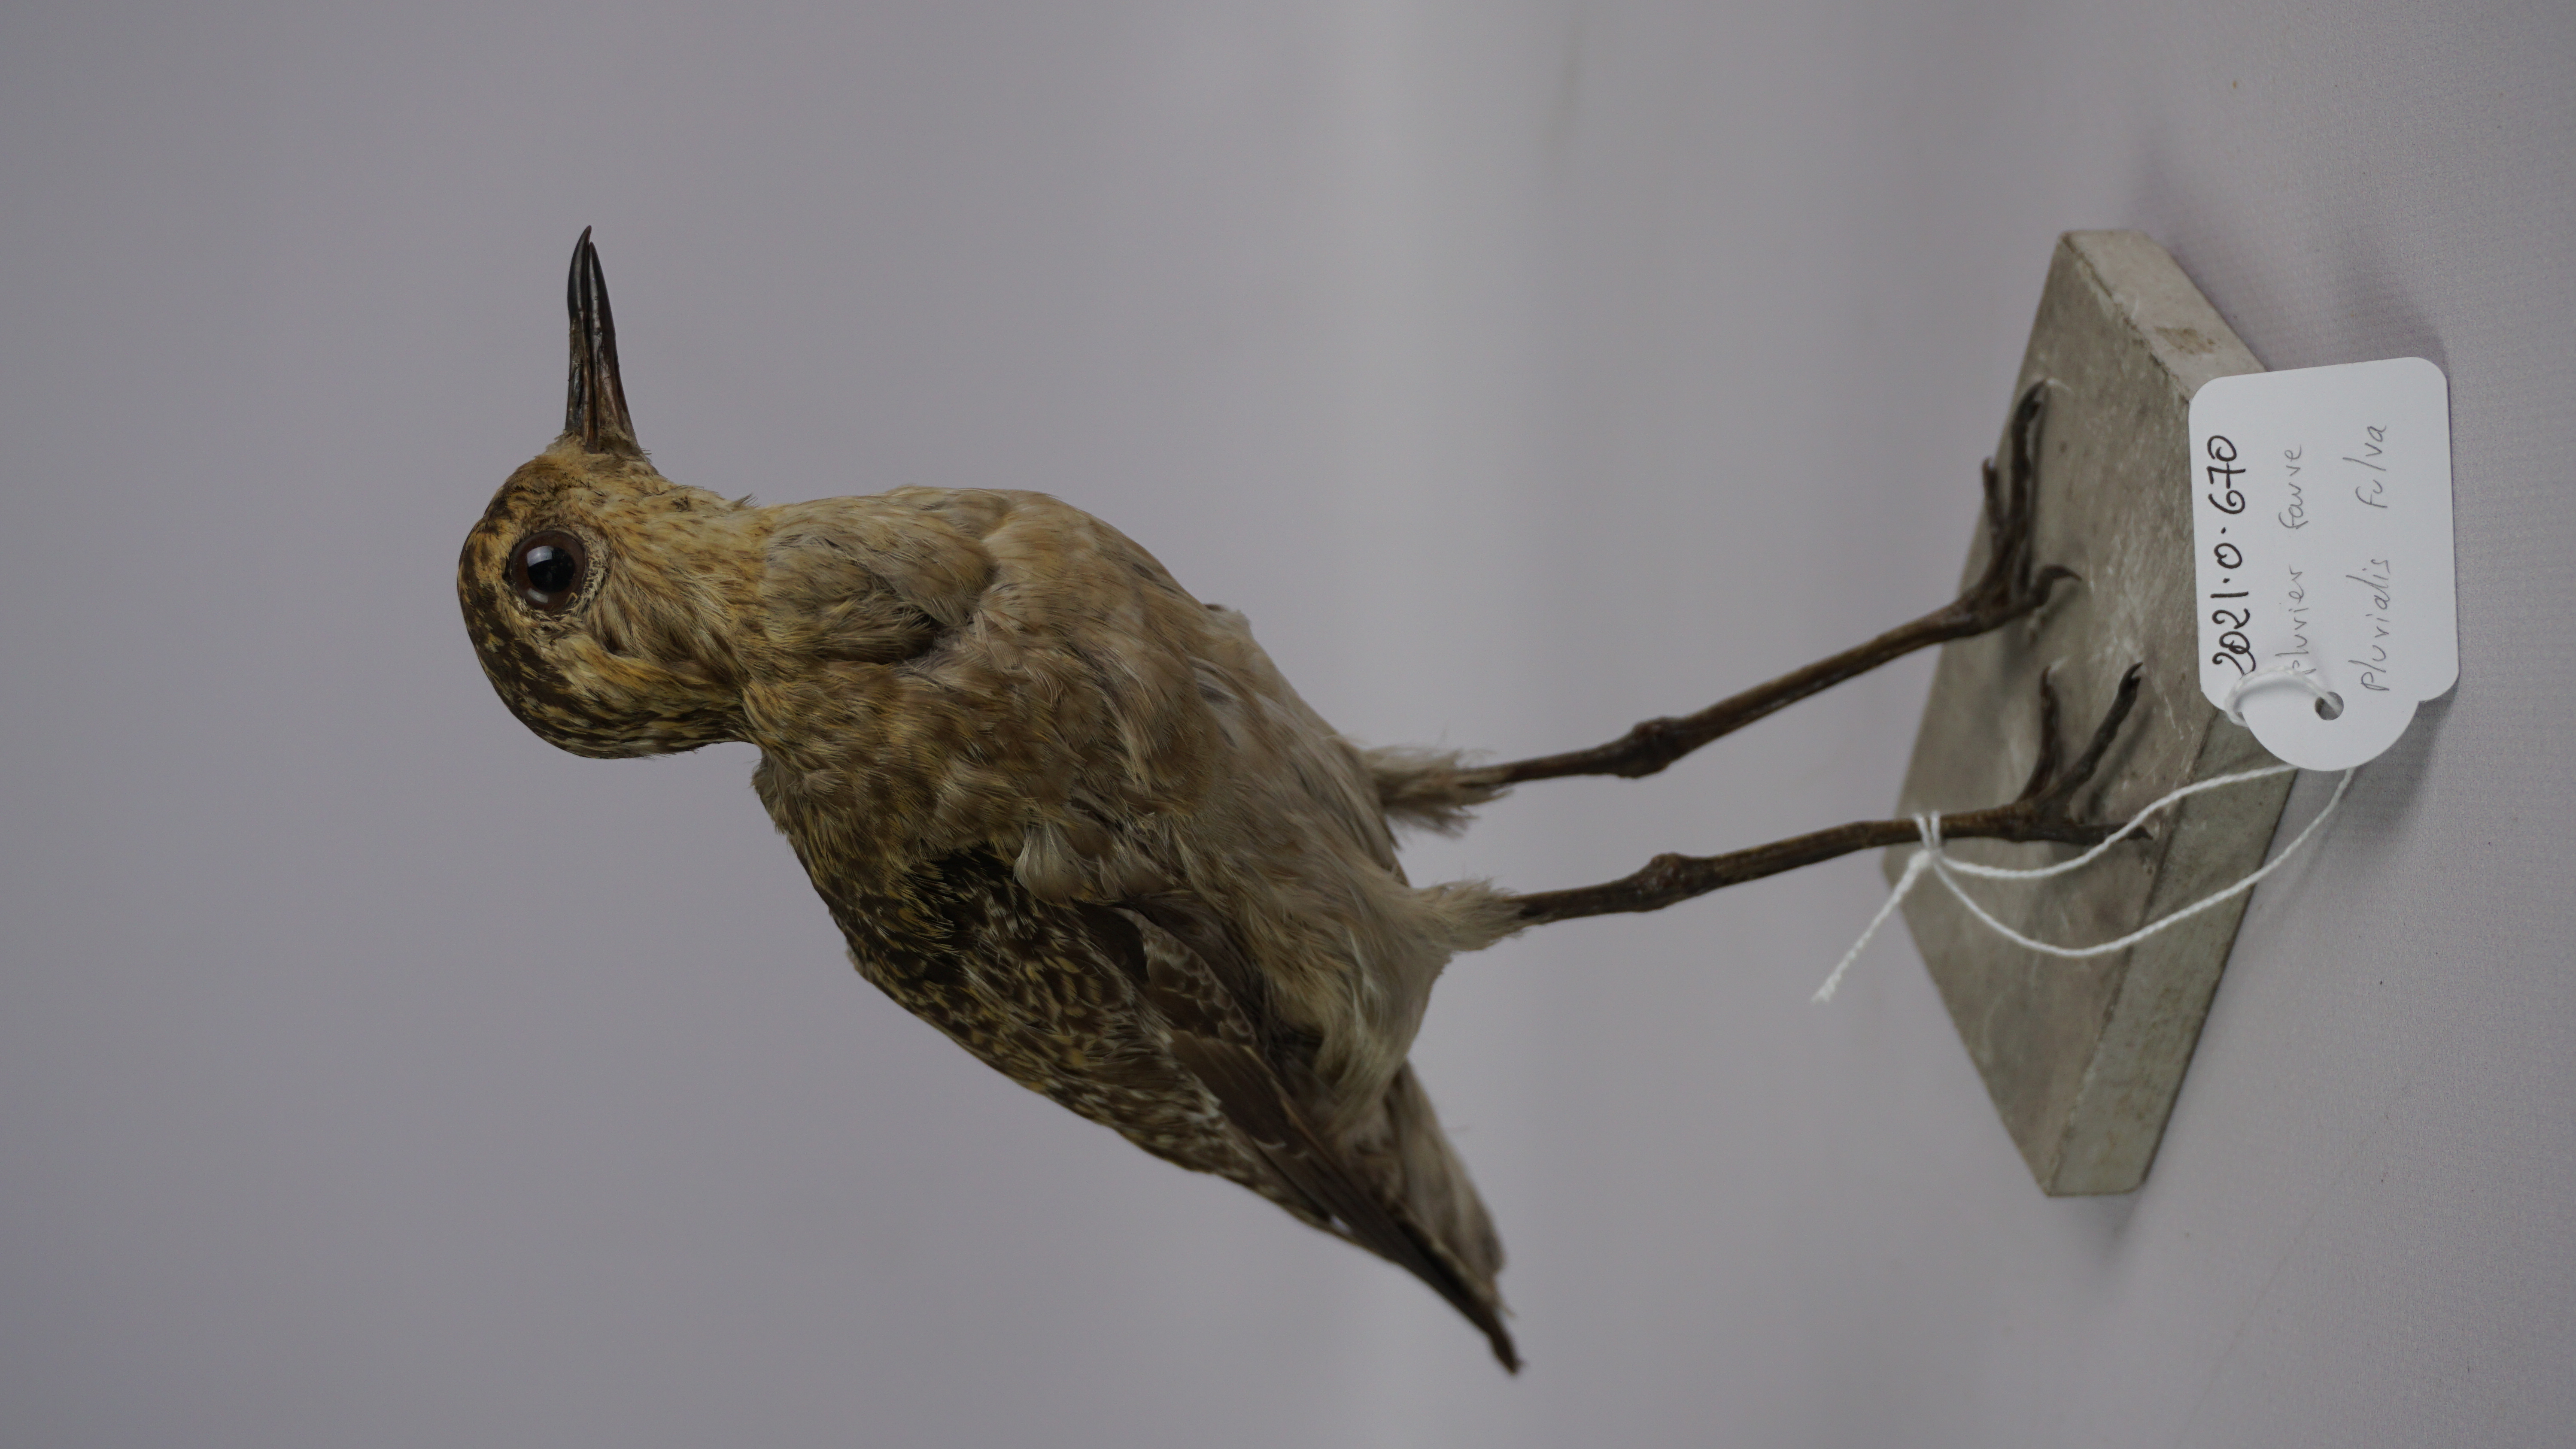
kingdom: Animalia
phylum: Chordata
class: Aves
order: Charadriiformes
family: Charadriidae
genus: Pluvialis
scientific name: Pluvialis fulva
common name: Pacific golden plover
